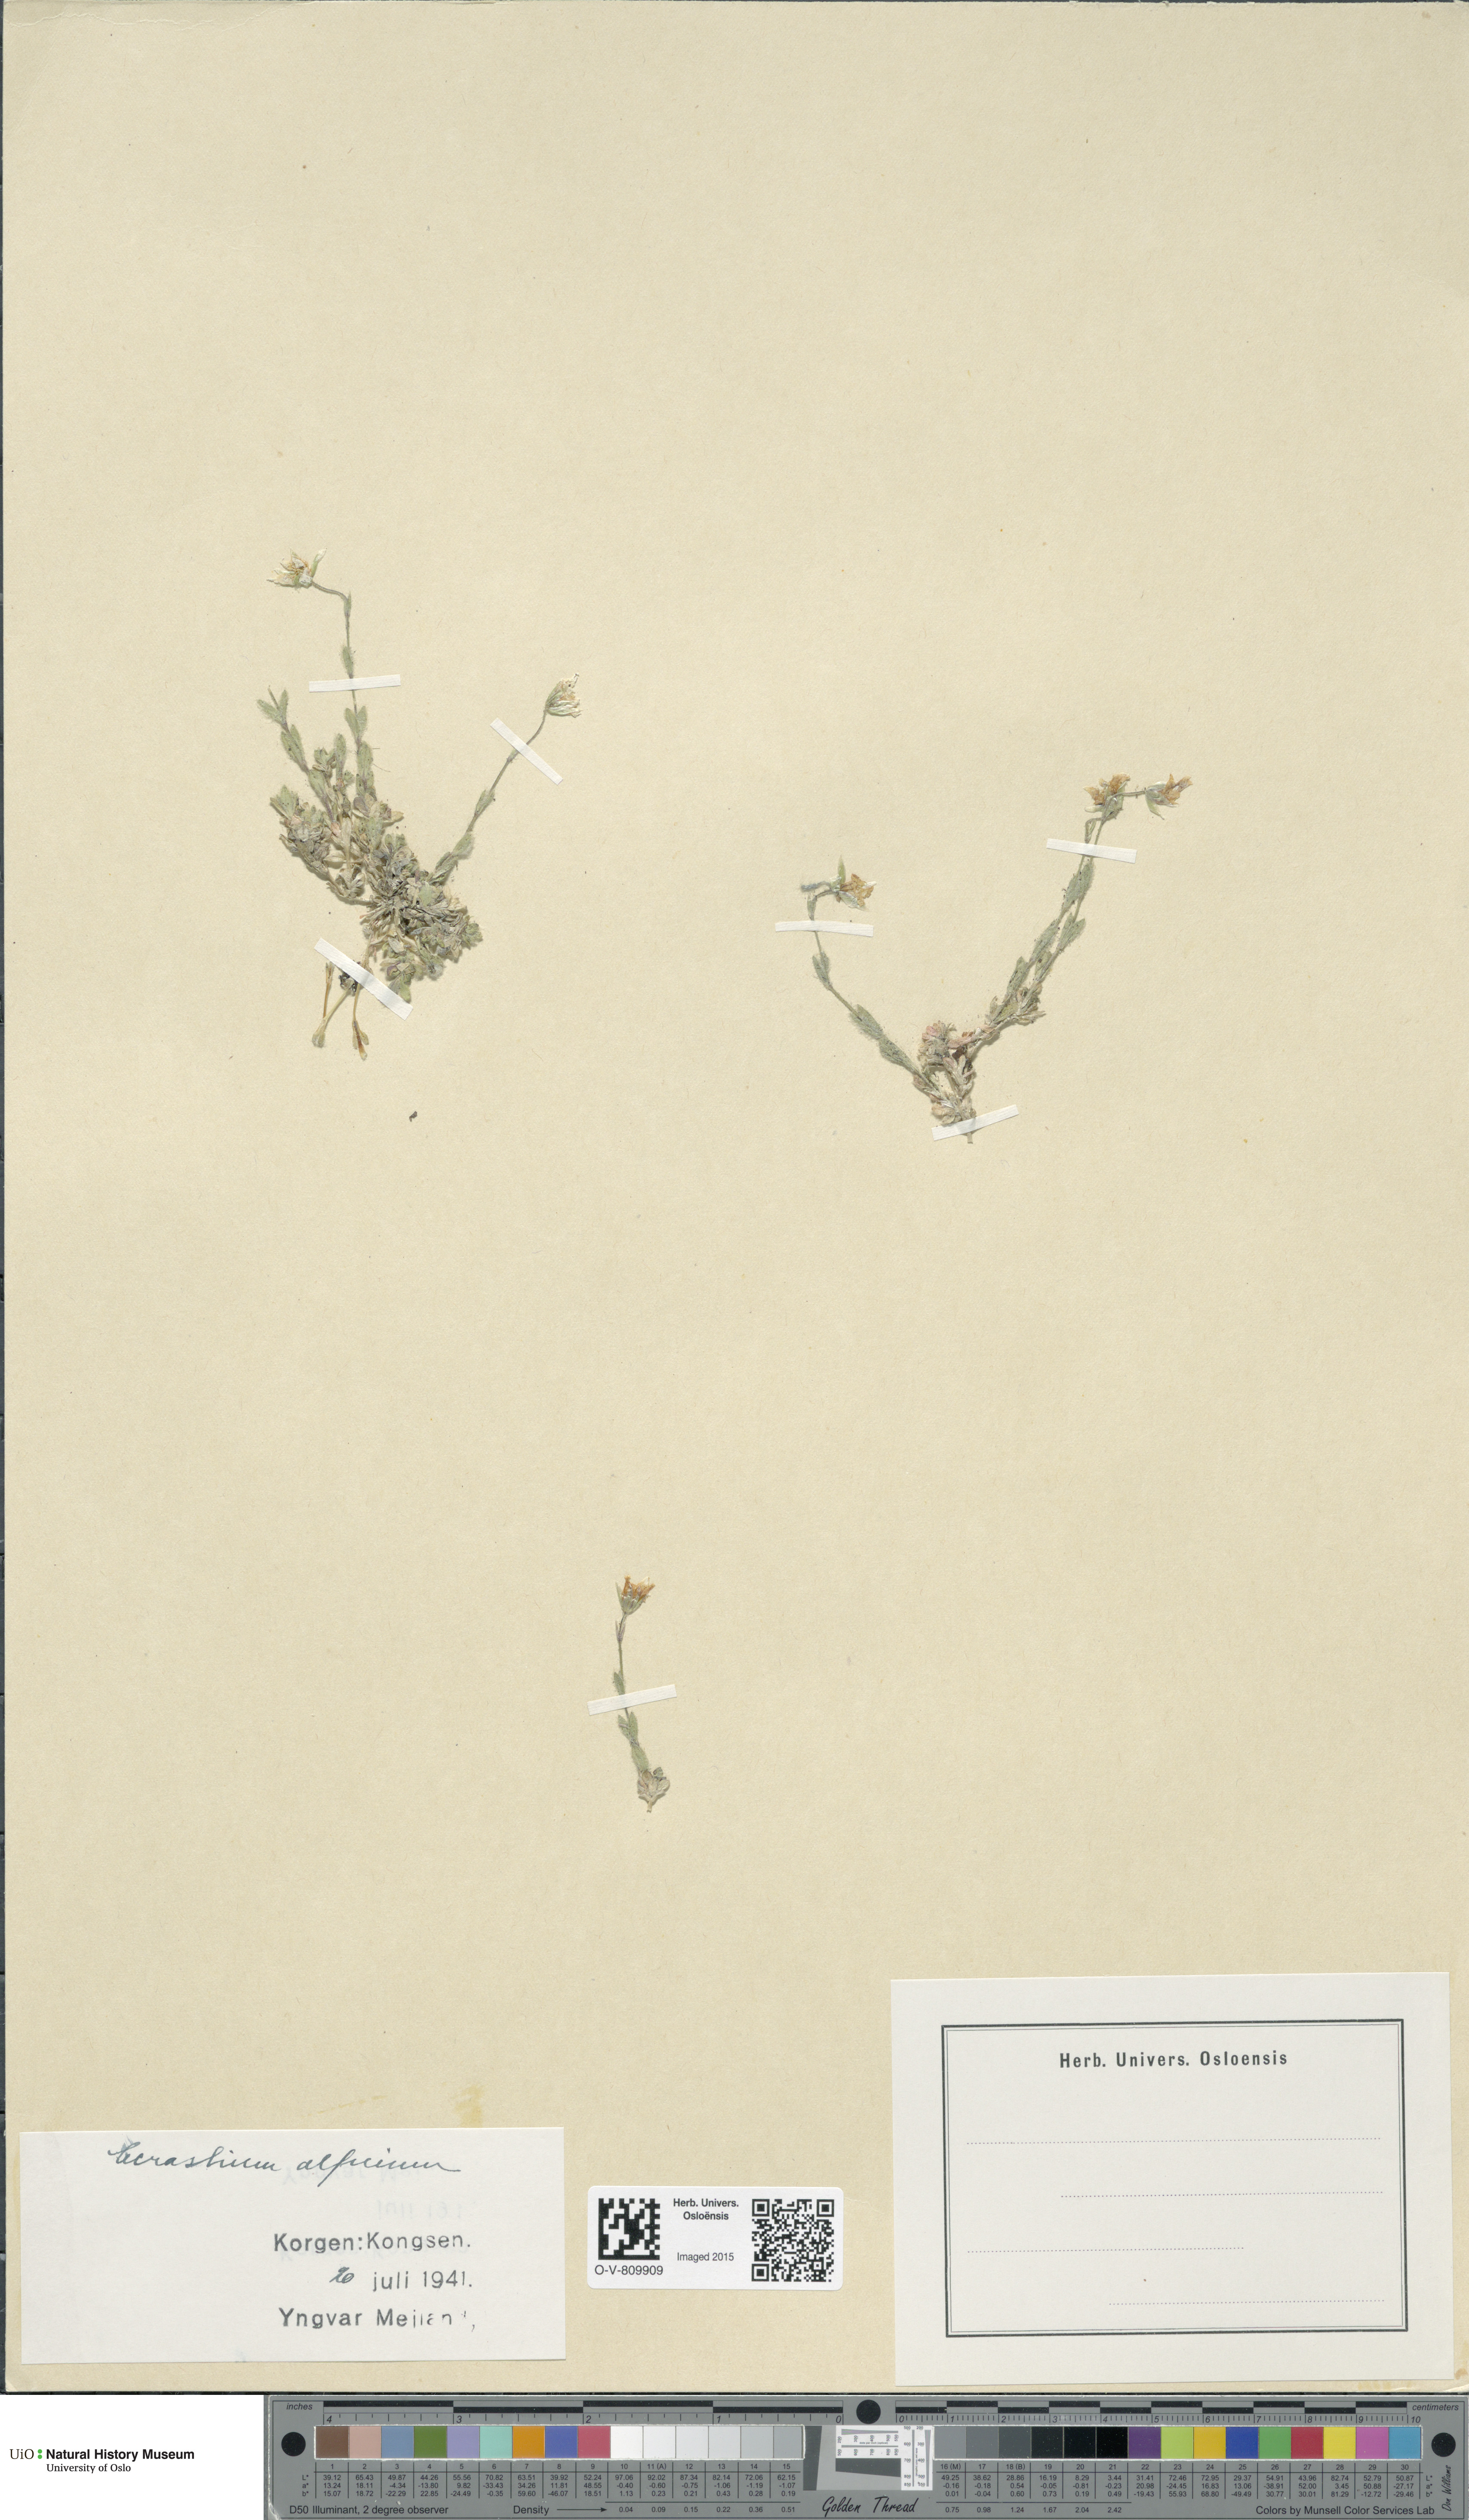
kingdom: Plantae
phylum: Tracheophyta
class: Magnoliopsida
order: Caryophyllales
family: Caryophyllaceae
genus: Cerastium
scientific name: Cerastium alpinum
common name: Alpine mouse-ear
